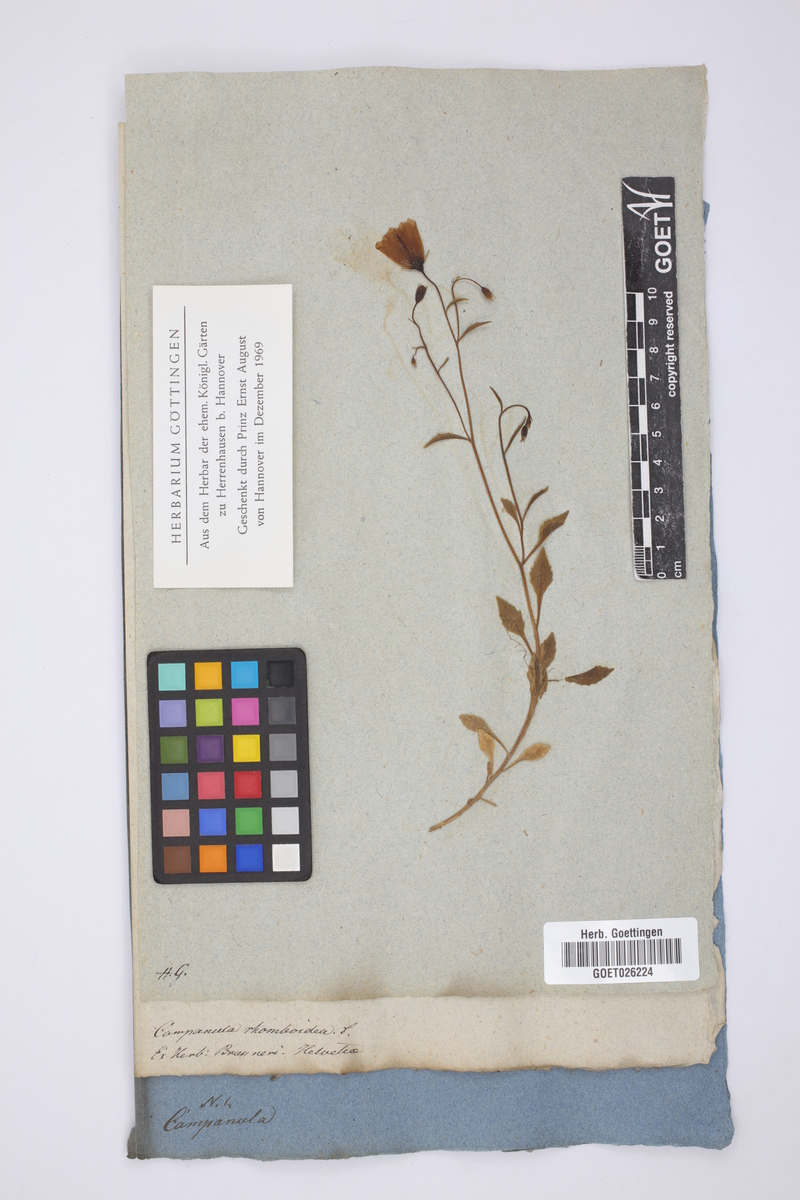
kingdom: Plantae
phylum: Tracheophyta
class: Magnoliopsida
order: Asterales
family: Campanulaceae
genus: Campanula
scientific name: Campanula rapunculoides
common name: Creeping bellflower
